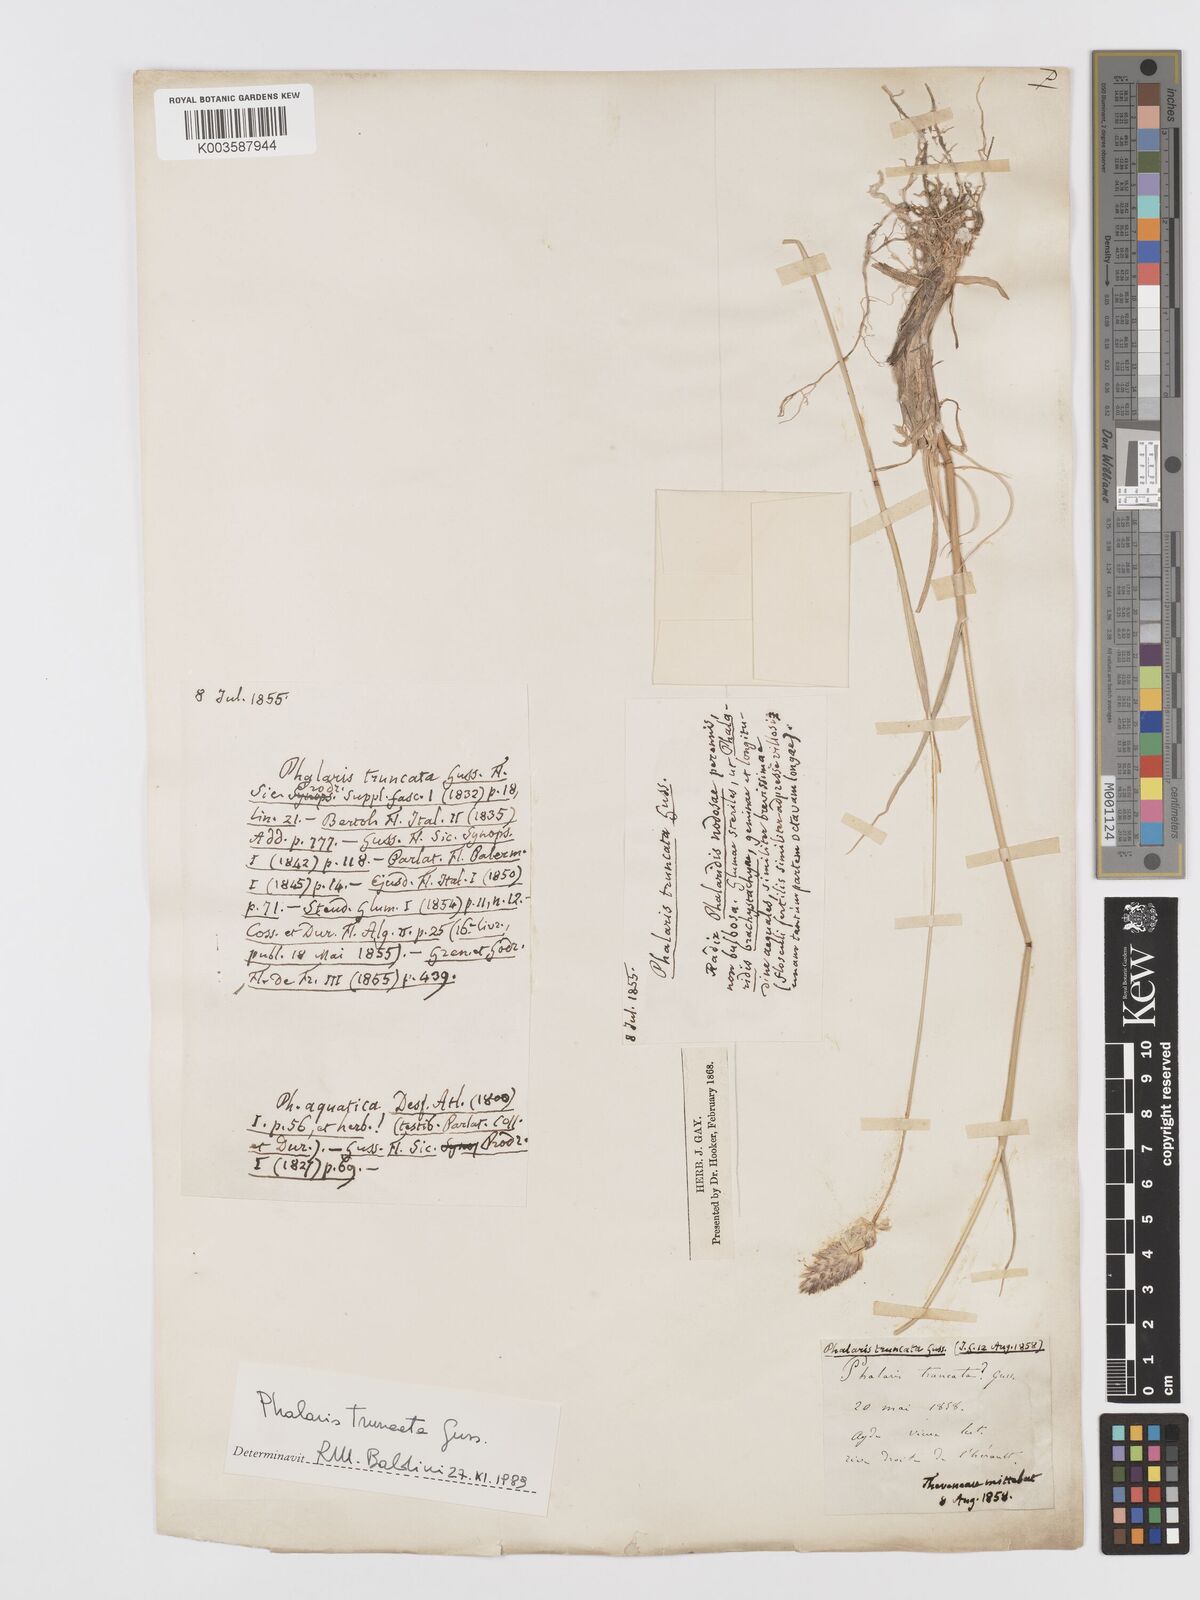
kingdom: Plantae
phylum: Tracheophyta
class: Liliopsida
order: Poales
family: Poaceae
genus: Phalaris
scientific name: Phalaris truncata
